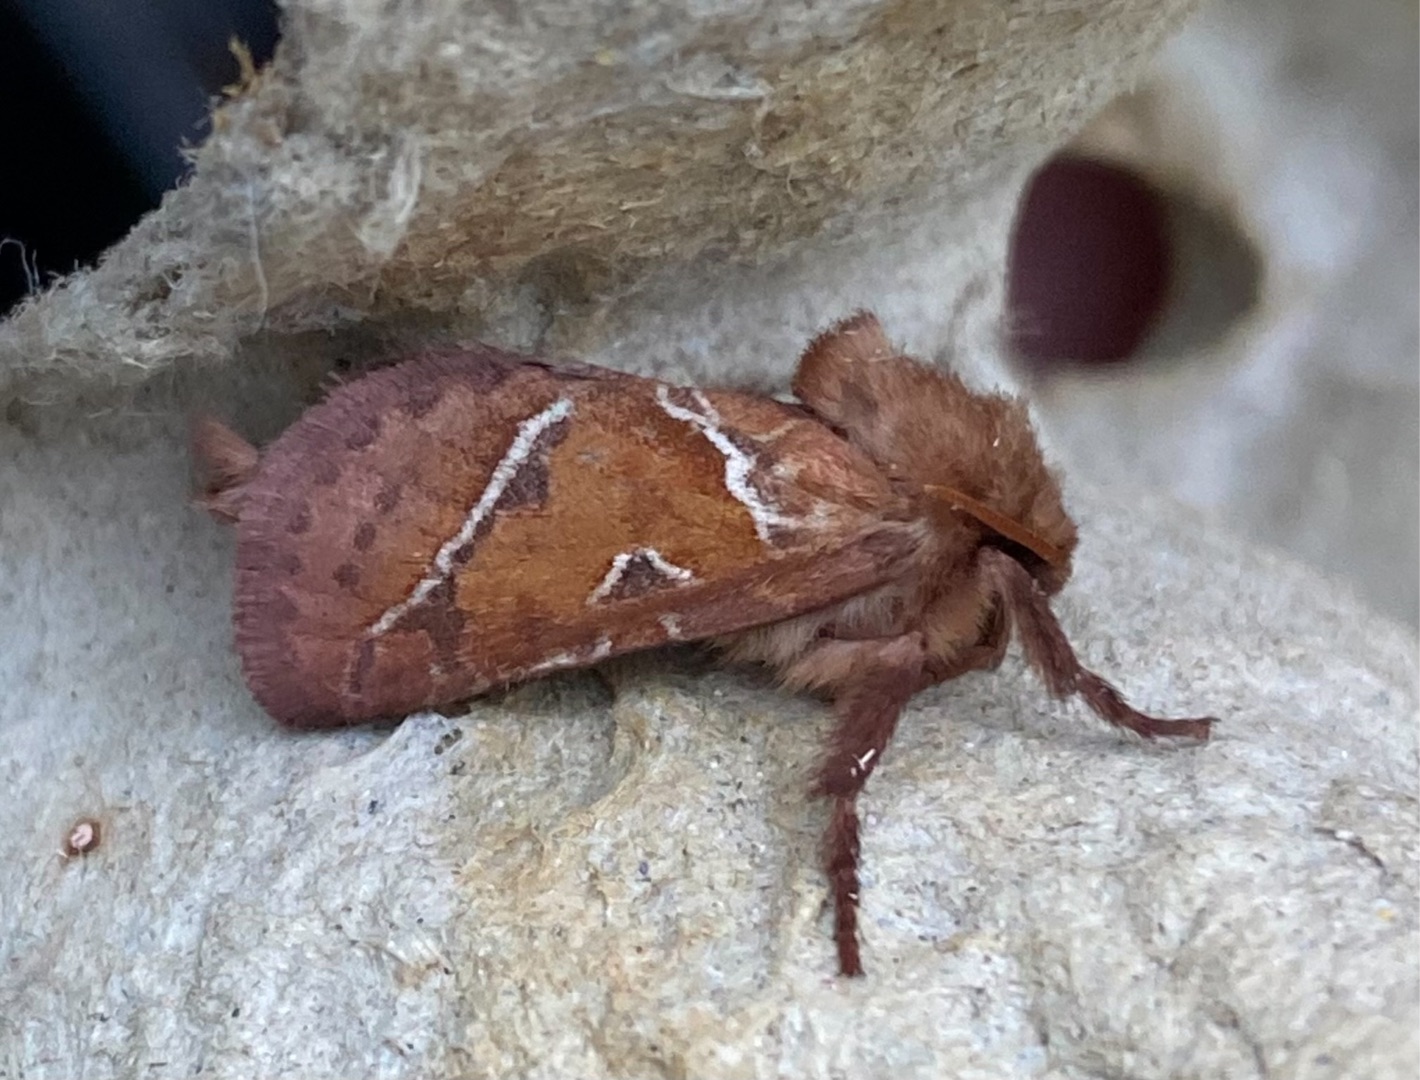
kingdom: Animalia
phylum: Arthropoda
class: Insecta
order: Lepidoptera
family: Hepialidae
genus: Triodia
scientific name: Triodia sylvina
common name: Skræpperodæder
